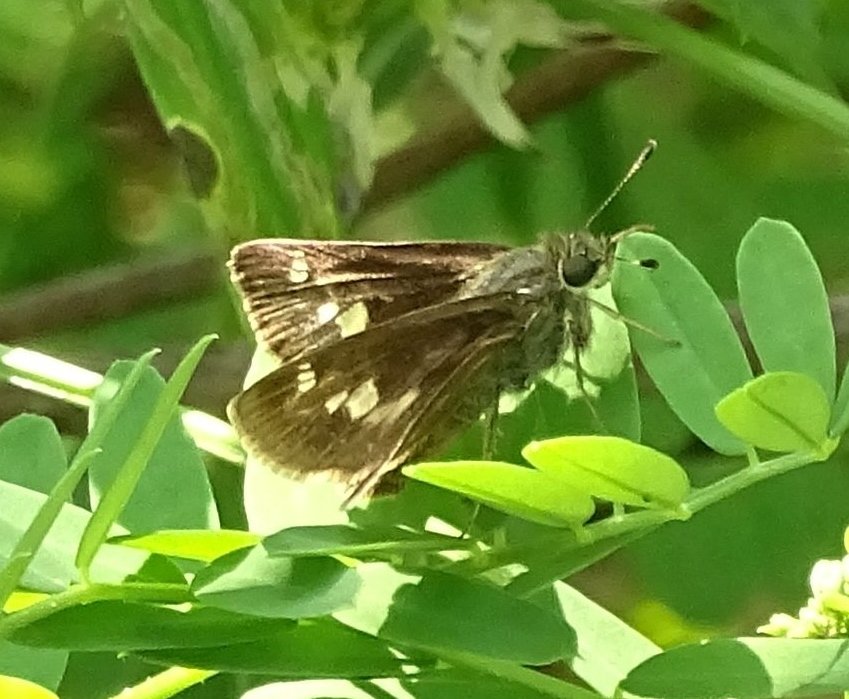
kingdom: Animalia
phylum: Arthropoda
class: Insecta
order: Lepidoptera
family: Hesperiidae
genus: Vernia
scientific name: Vernia verna
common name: Little Glassywing
